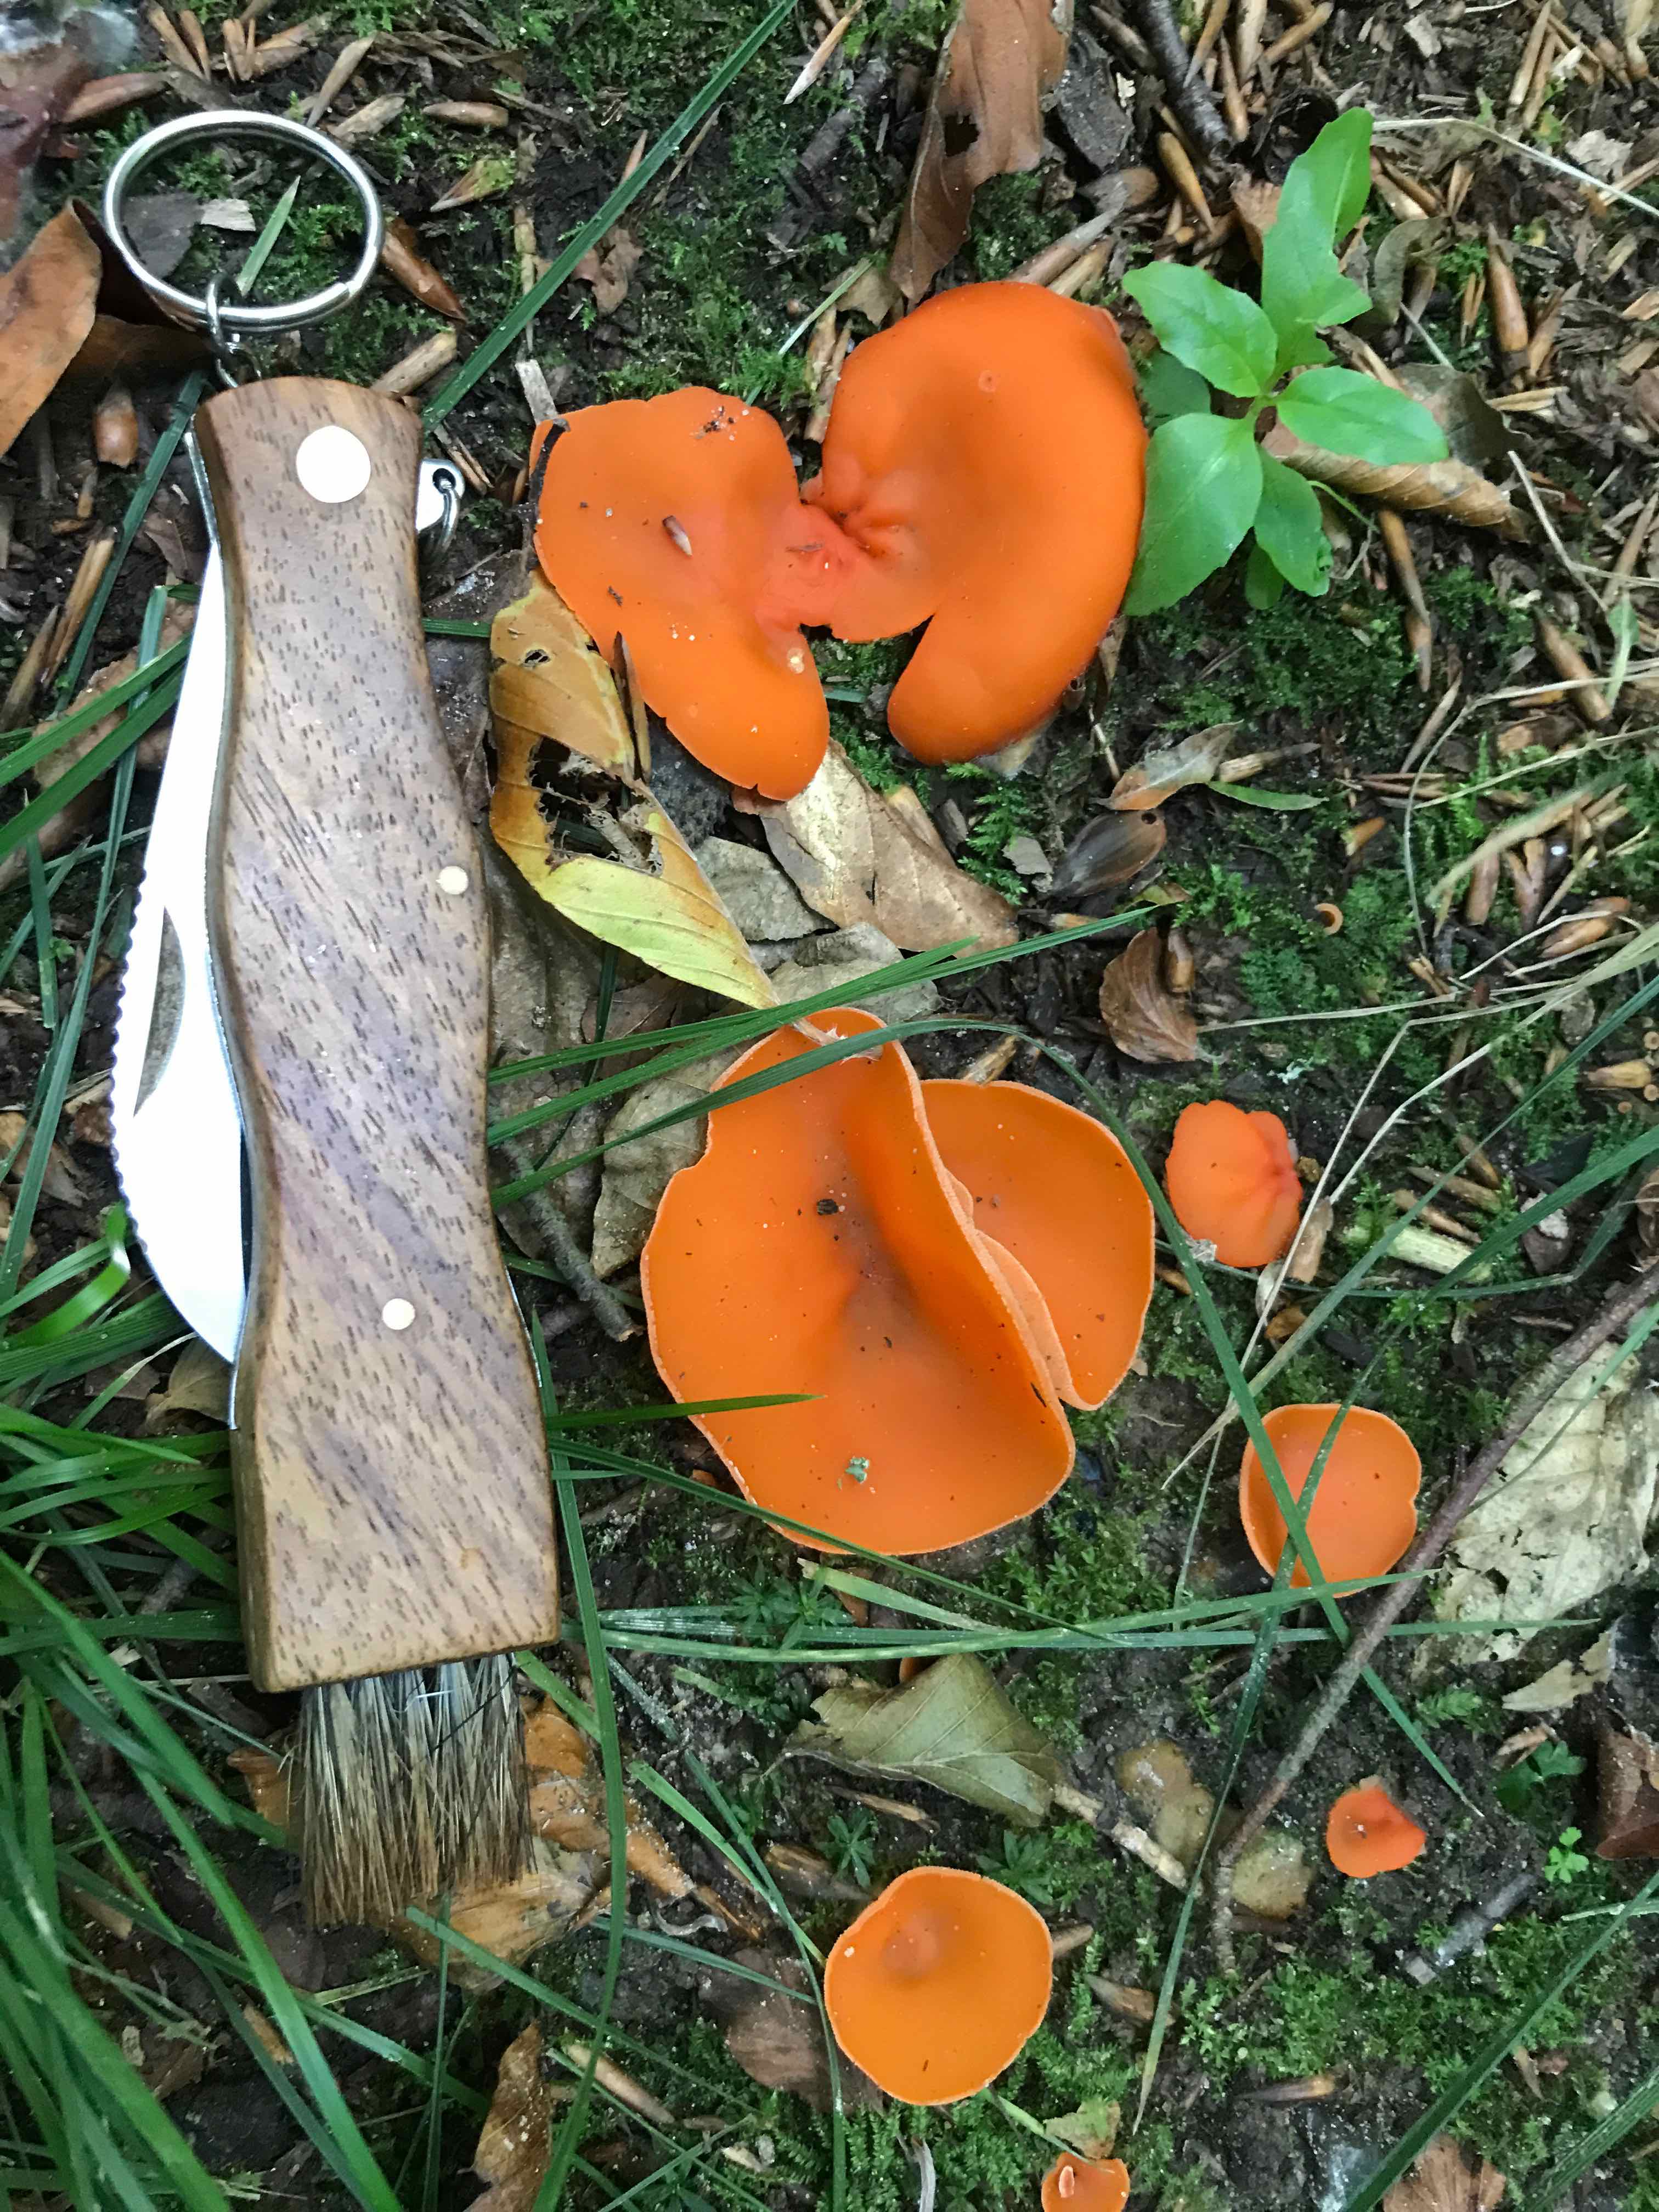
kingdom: Fungi
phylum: Ascomycota
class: Pezizomycetes
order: Pezizales
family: Pyronemataceae
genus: Aleuria
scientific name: Aleuria aurantia
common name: almindelig orangebæger
